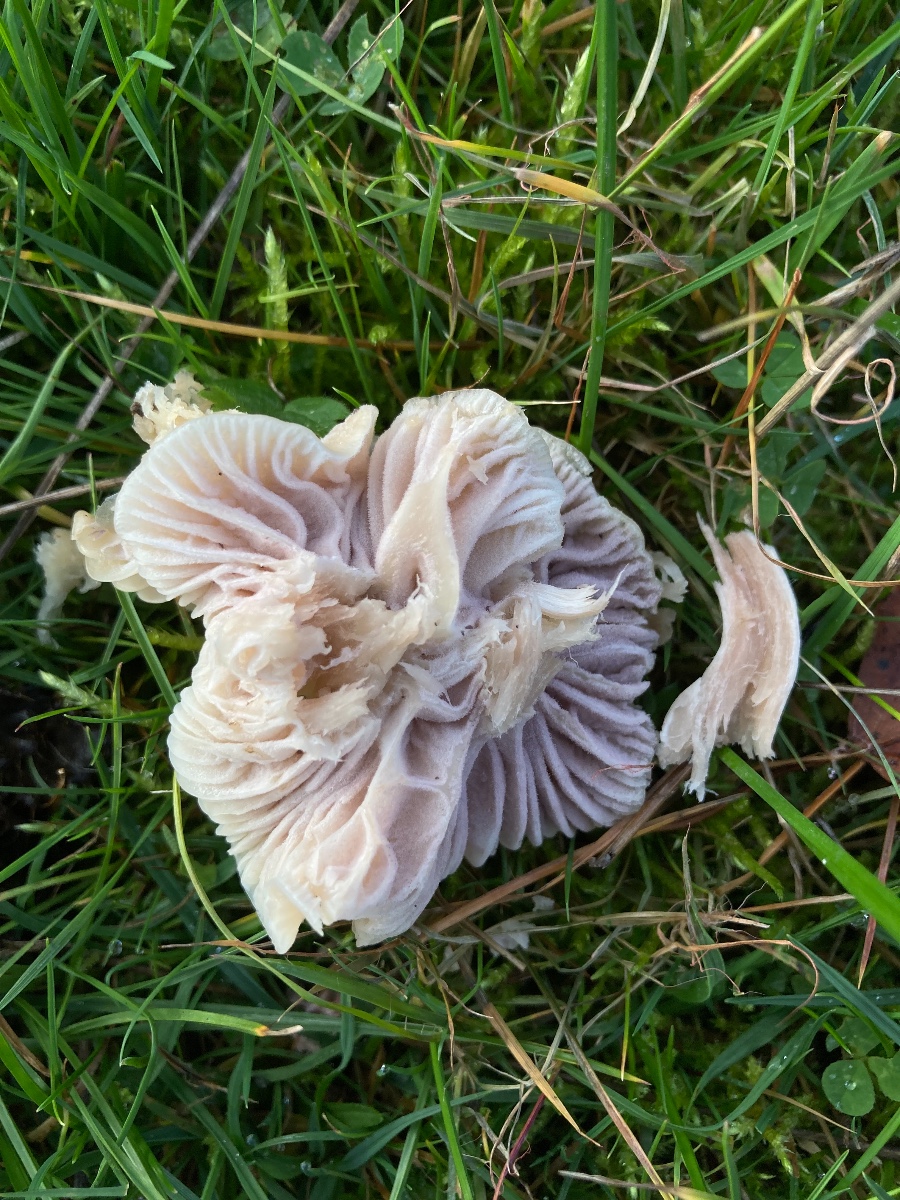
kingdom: Fungi
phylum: Ascomycota
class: Sordariomycetes
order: Hypocreales
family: Clavicipitaceae
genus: Marquandomyces
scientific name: Marquandomyces marquandii
